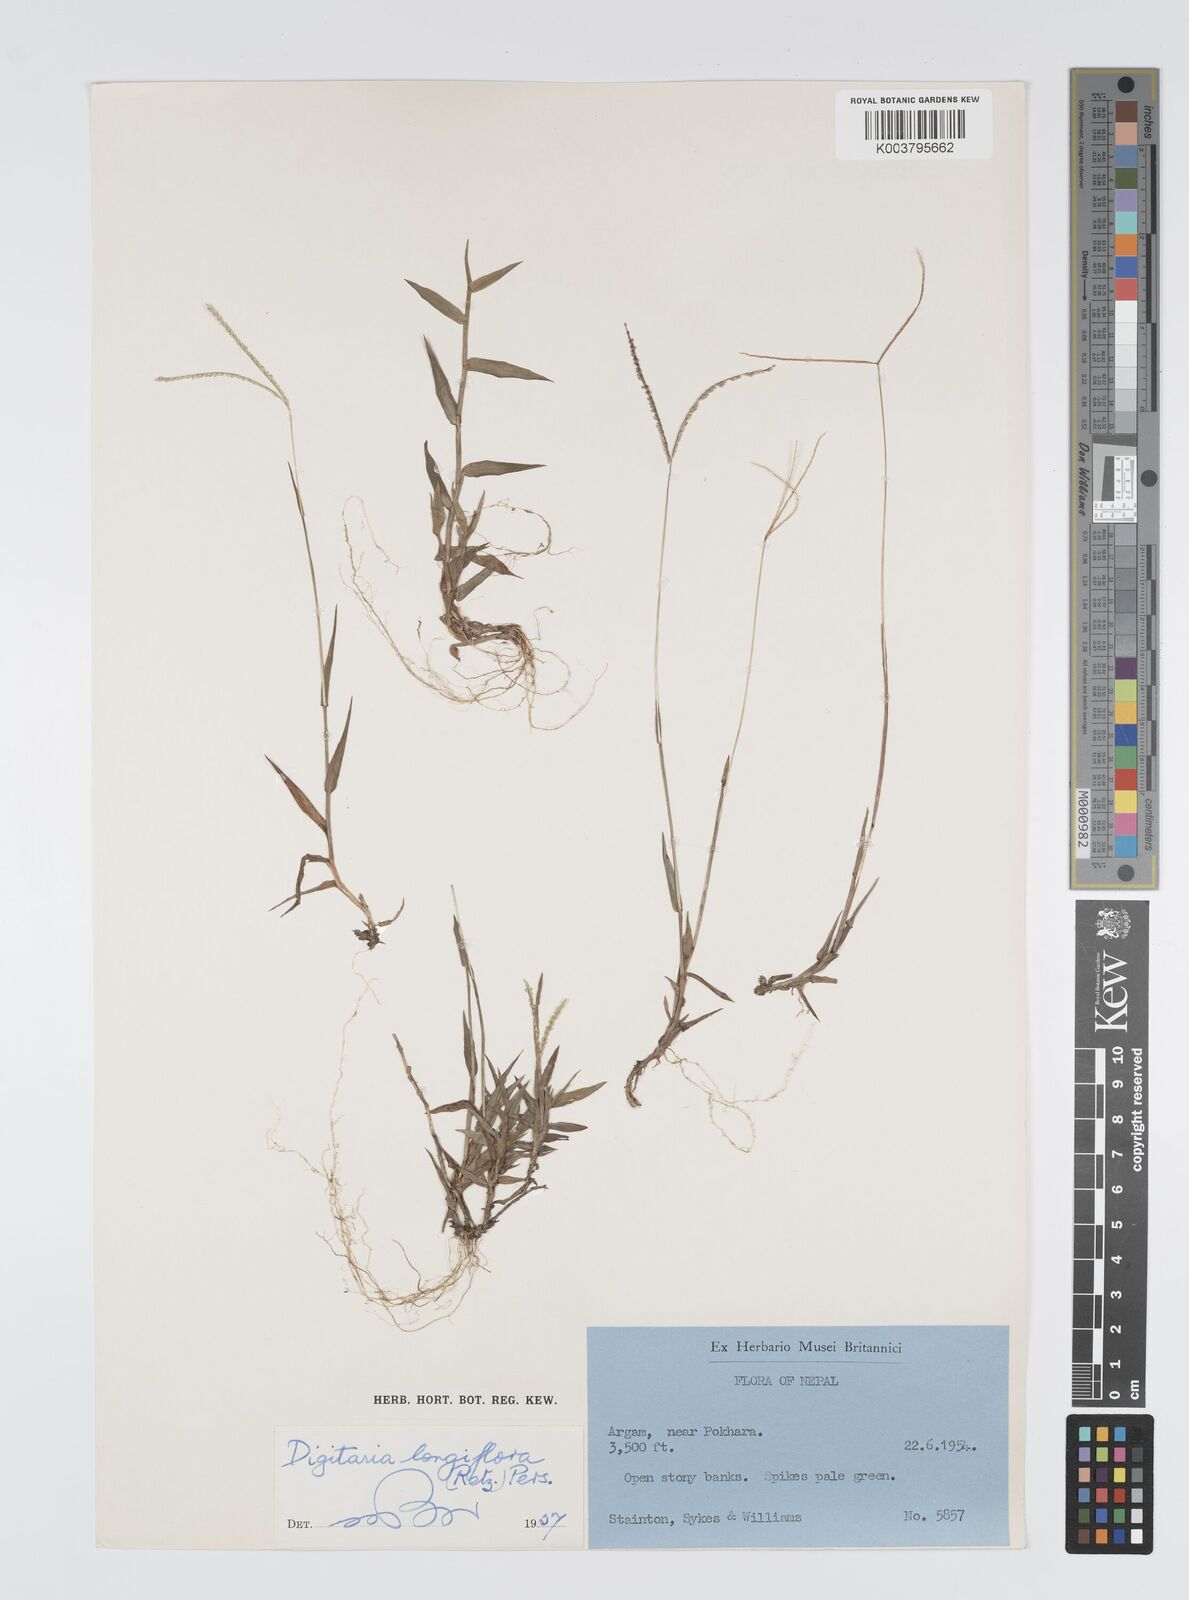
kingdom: Plantae
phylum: Tracheophyta
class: Liliopsida
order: Poales
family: Poaceae
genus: Digitaria
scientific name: Digitaria longiflora
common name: Wire crabgrass
